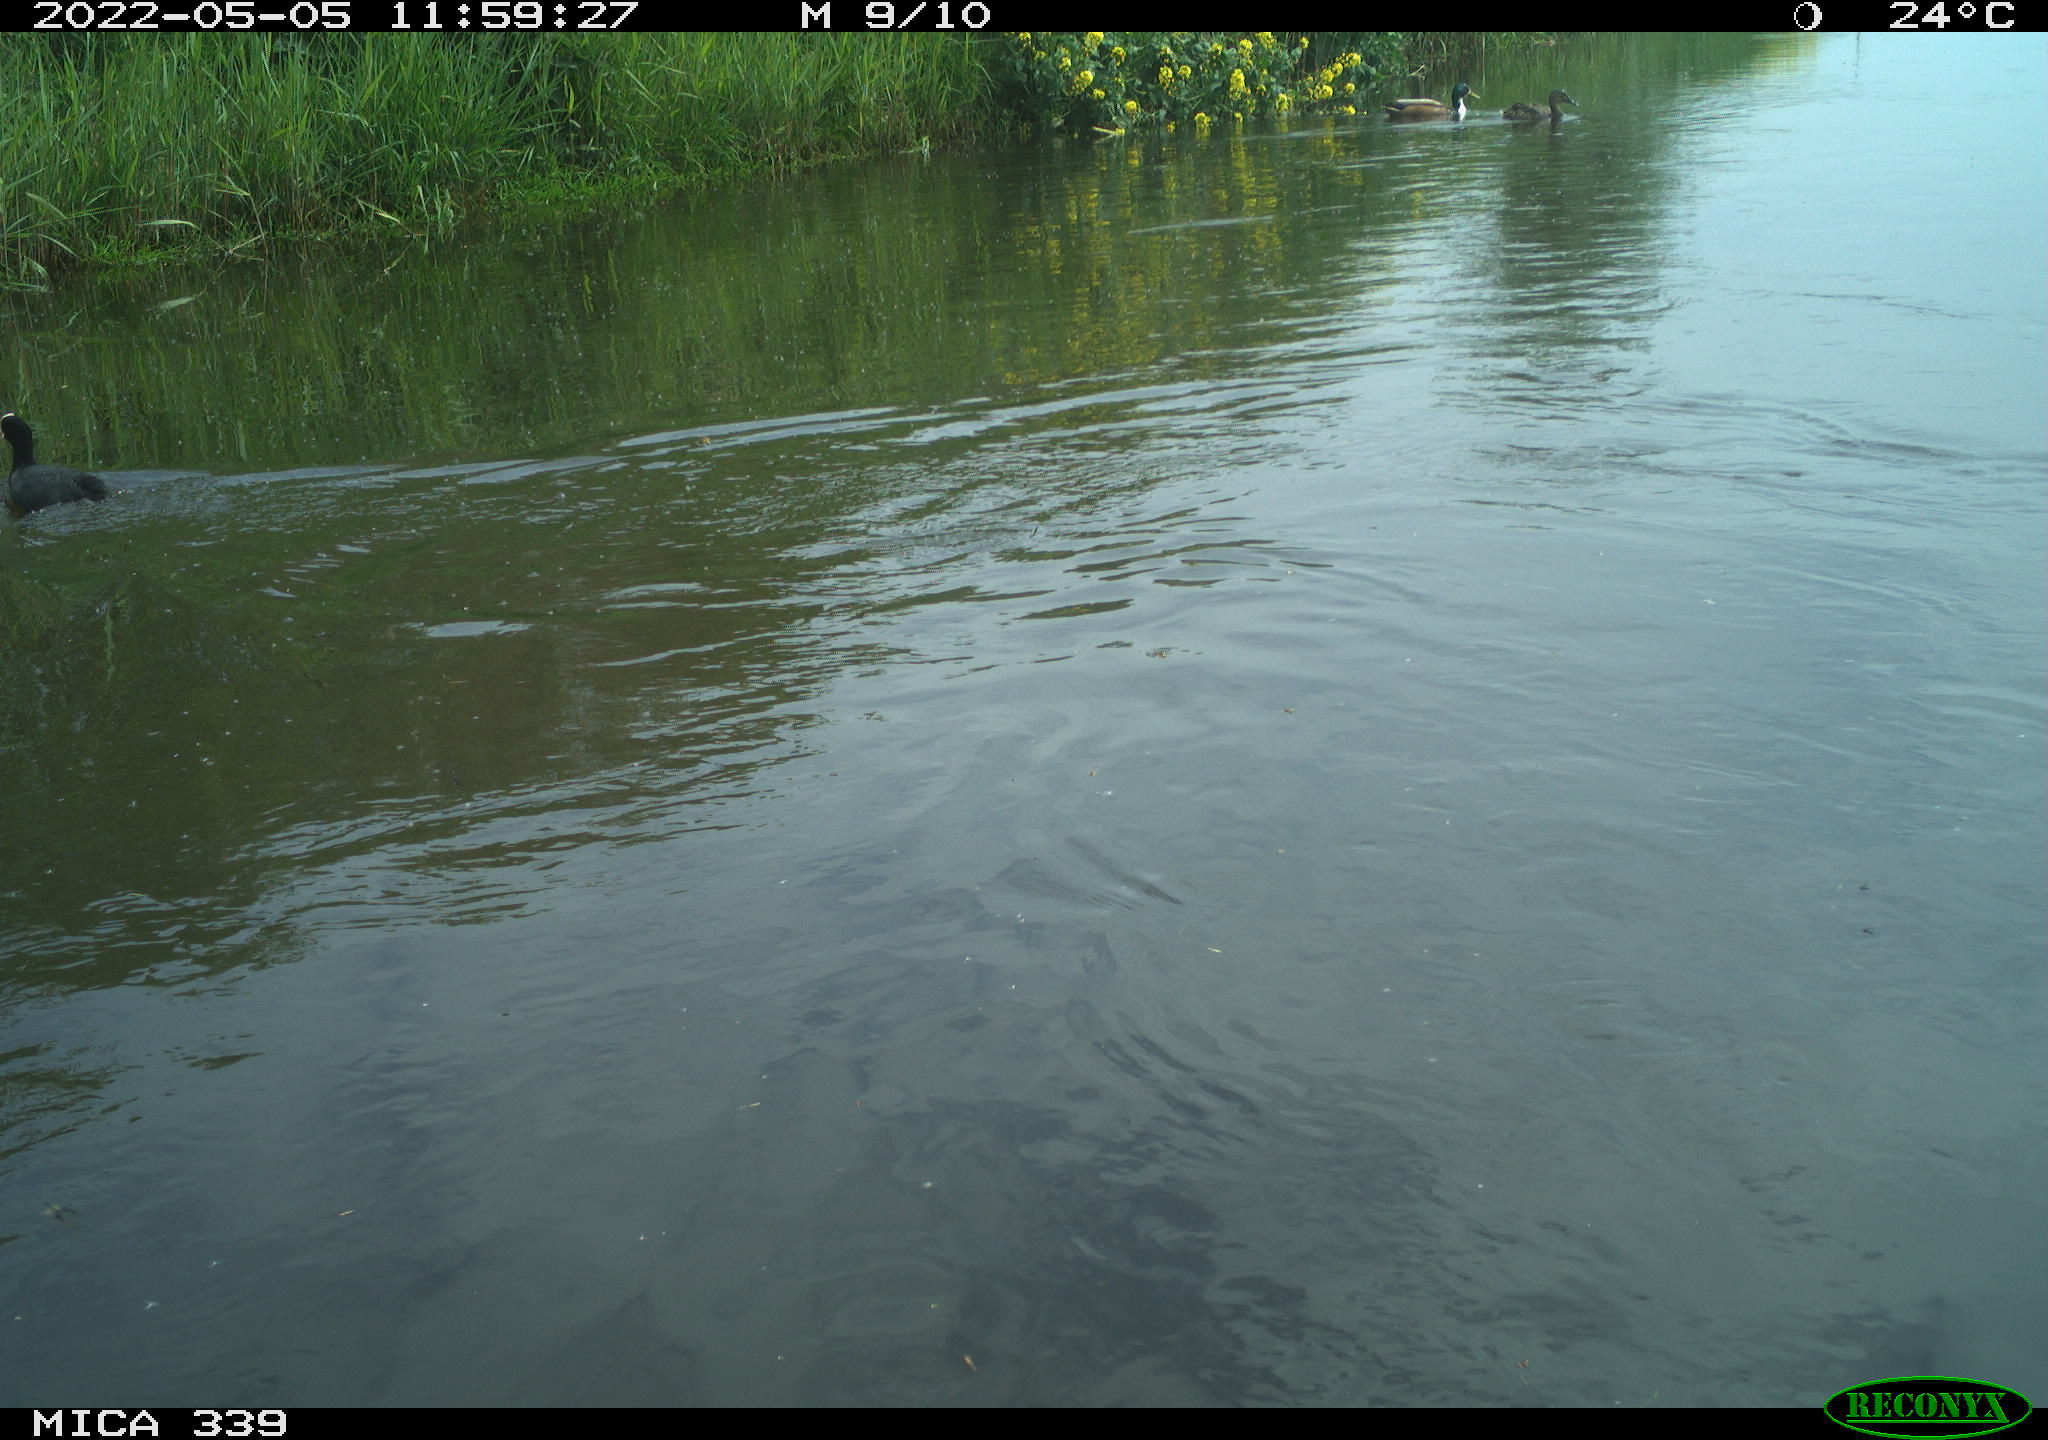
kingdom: Animalia
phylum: Chordata
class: Aves
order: Gruiformes
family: Rallidae
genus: Fulica
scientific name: Fulica atra
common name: Eurasian coot
